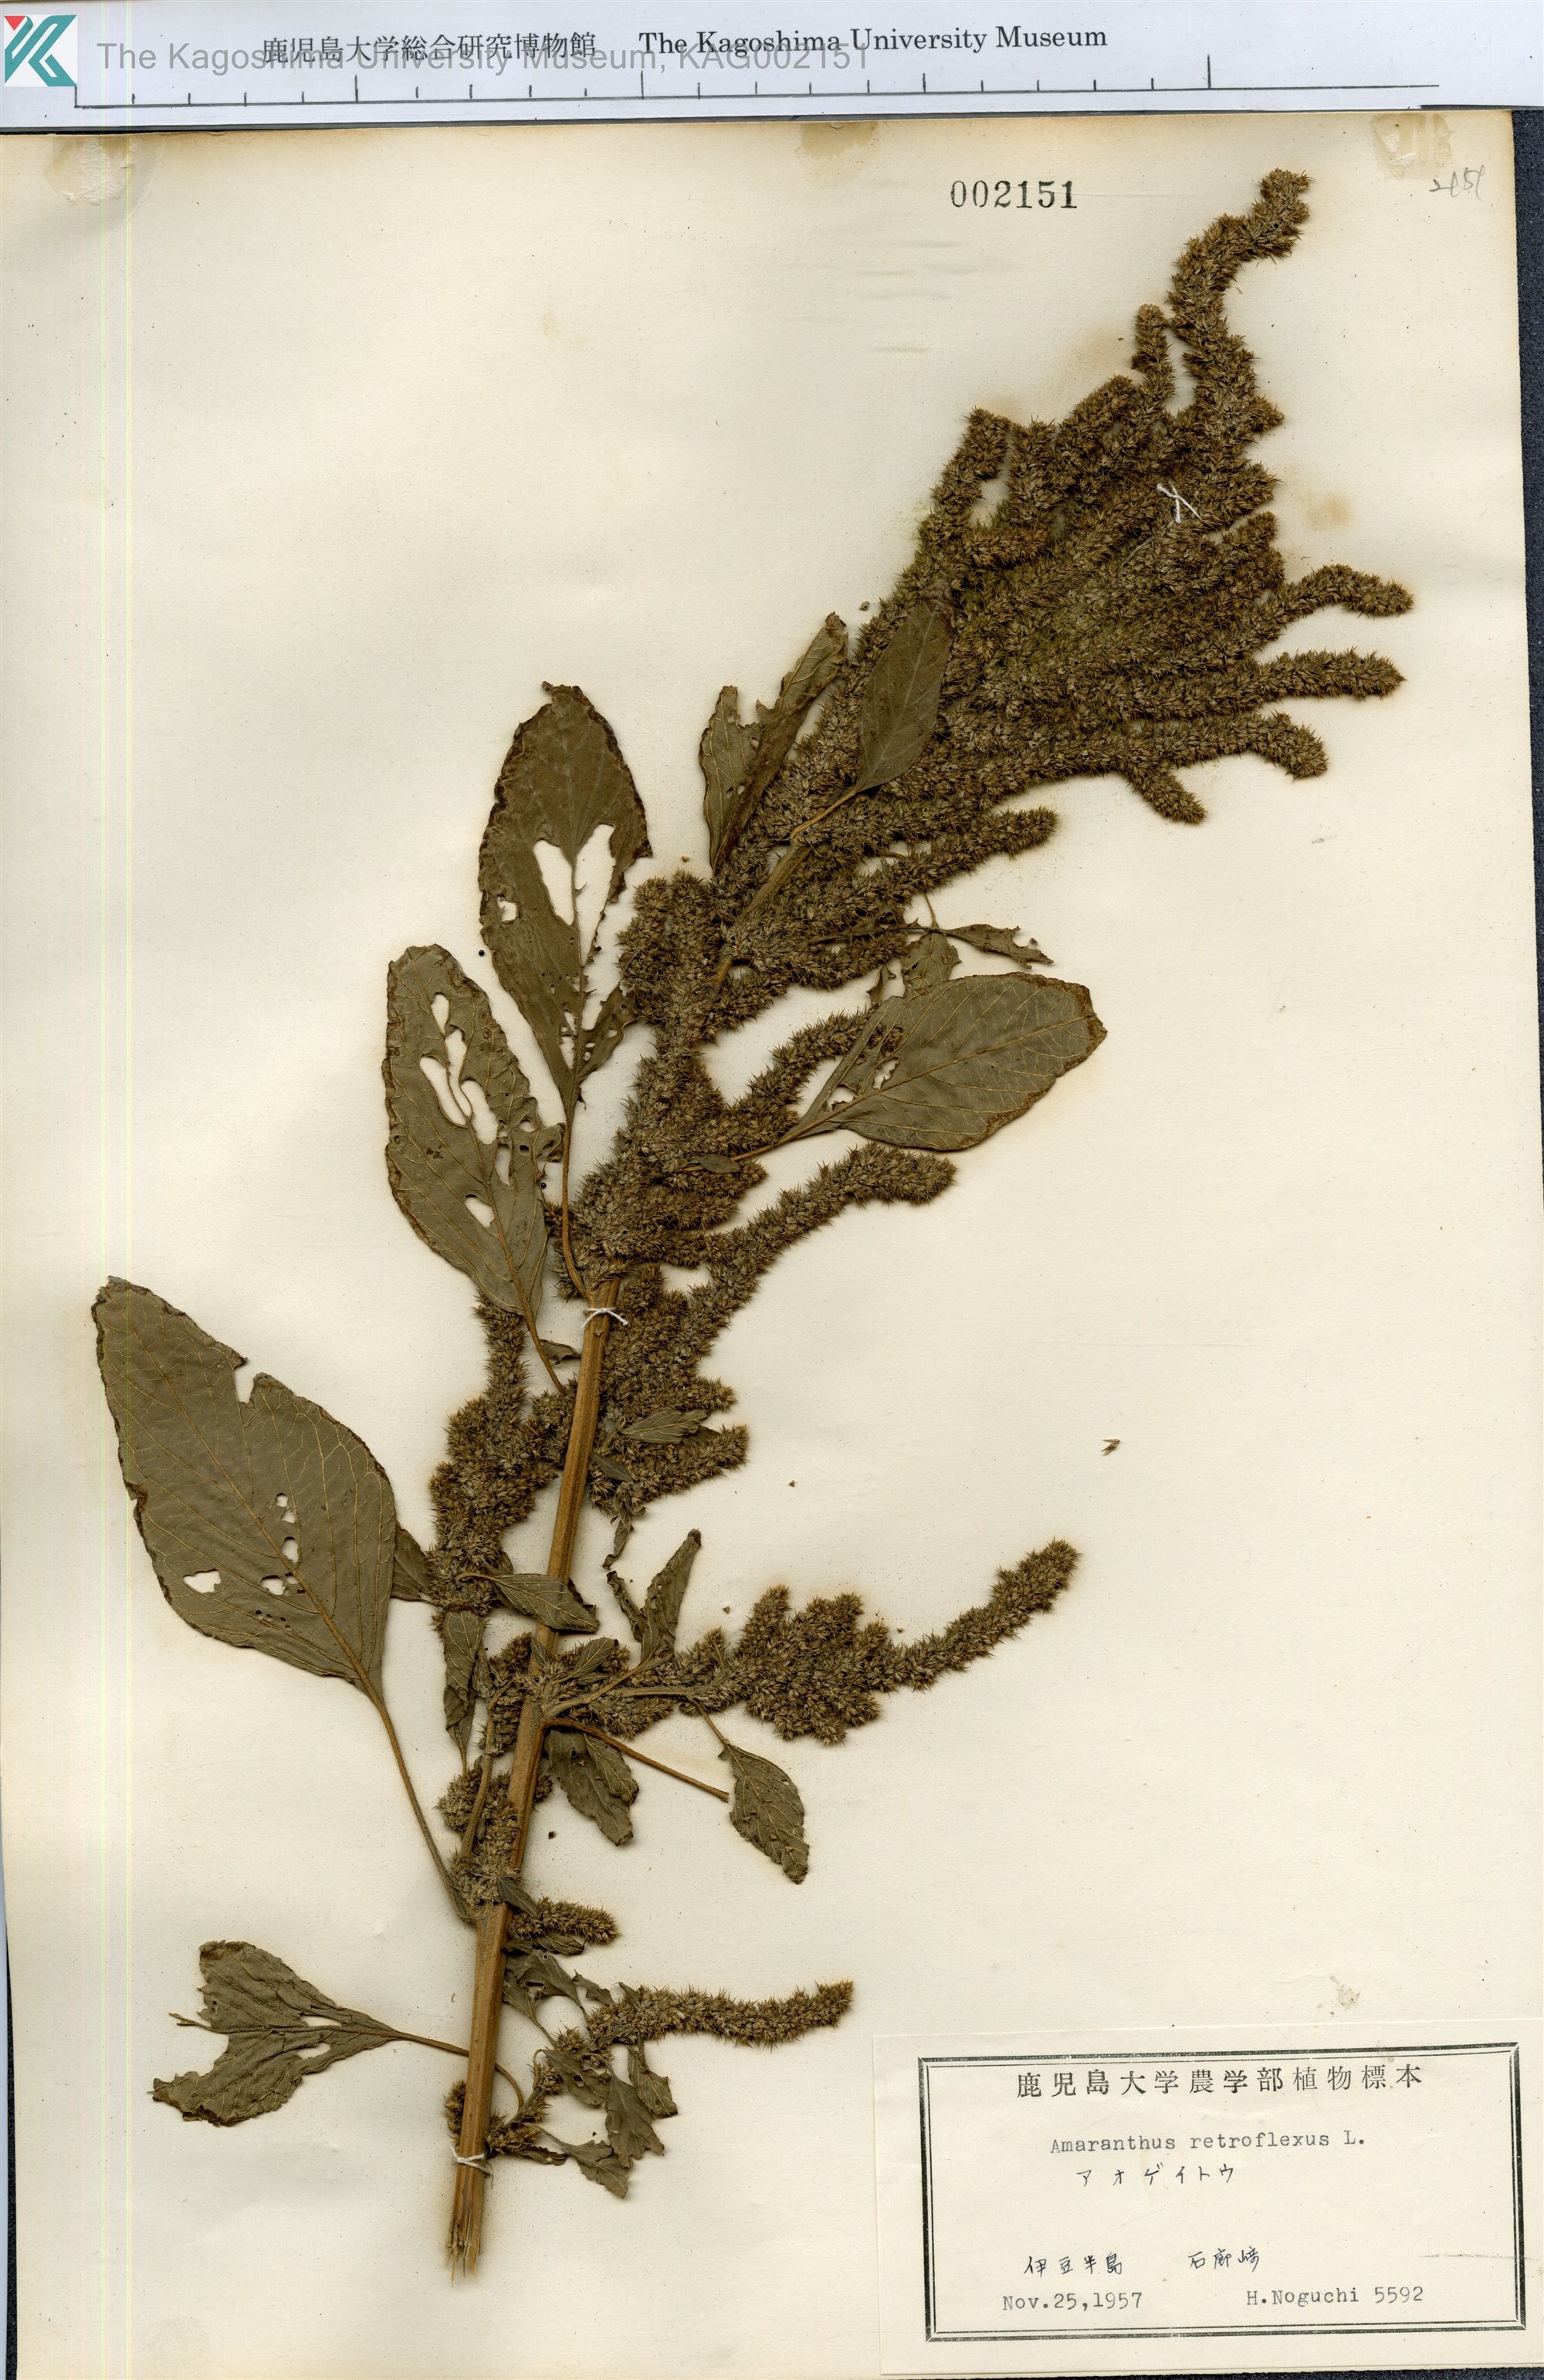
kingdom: Plantae
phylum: Tracheophyta
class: Magnoliopsida
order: Caryophyllales
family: Amaranthaceae
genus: Amaranthus
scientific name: Amaranthus retroflexus
